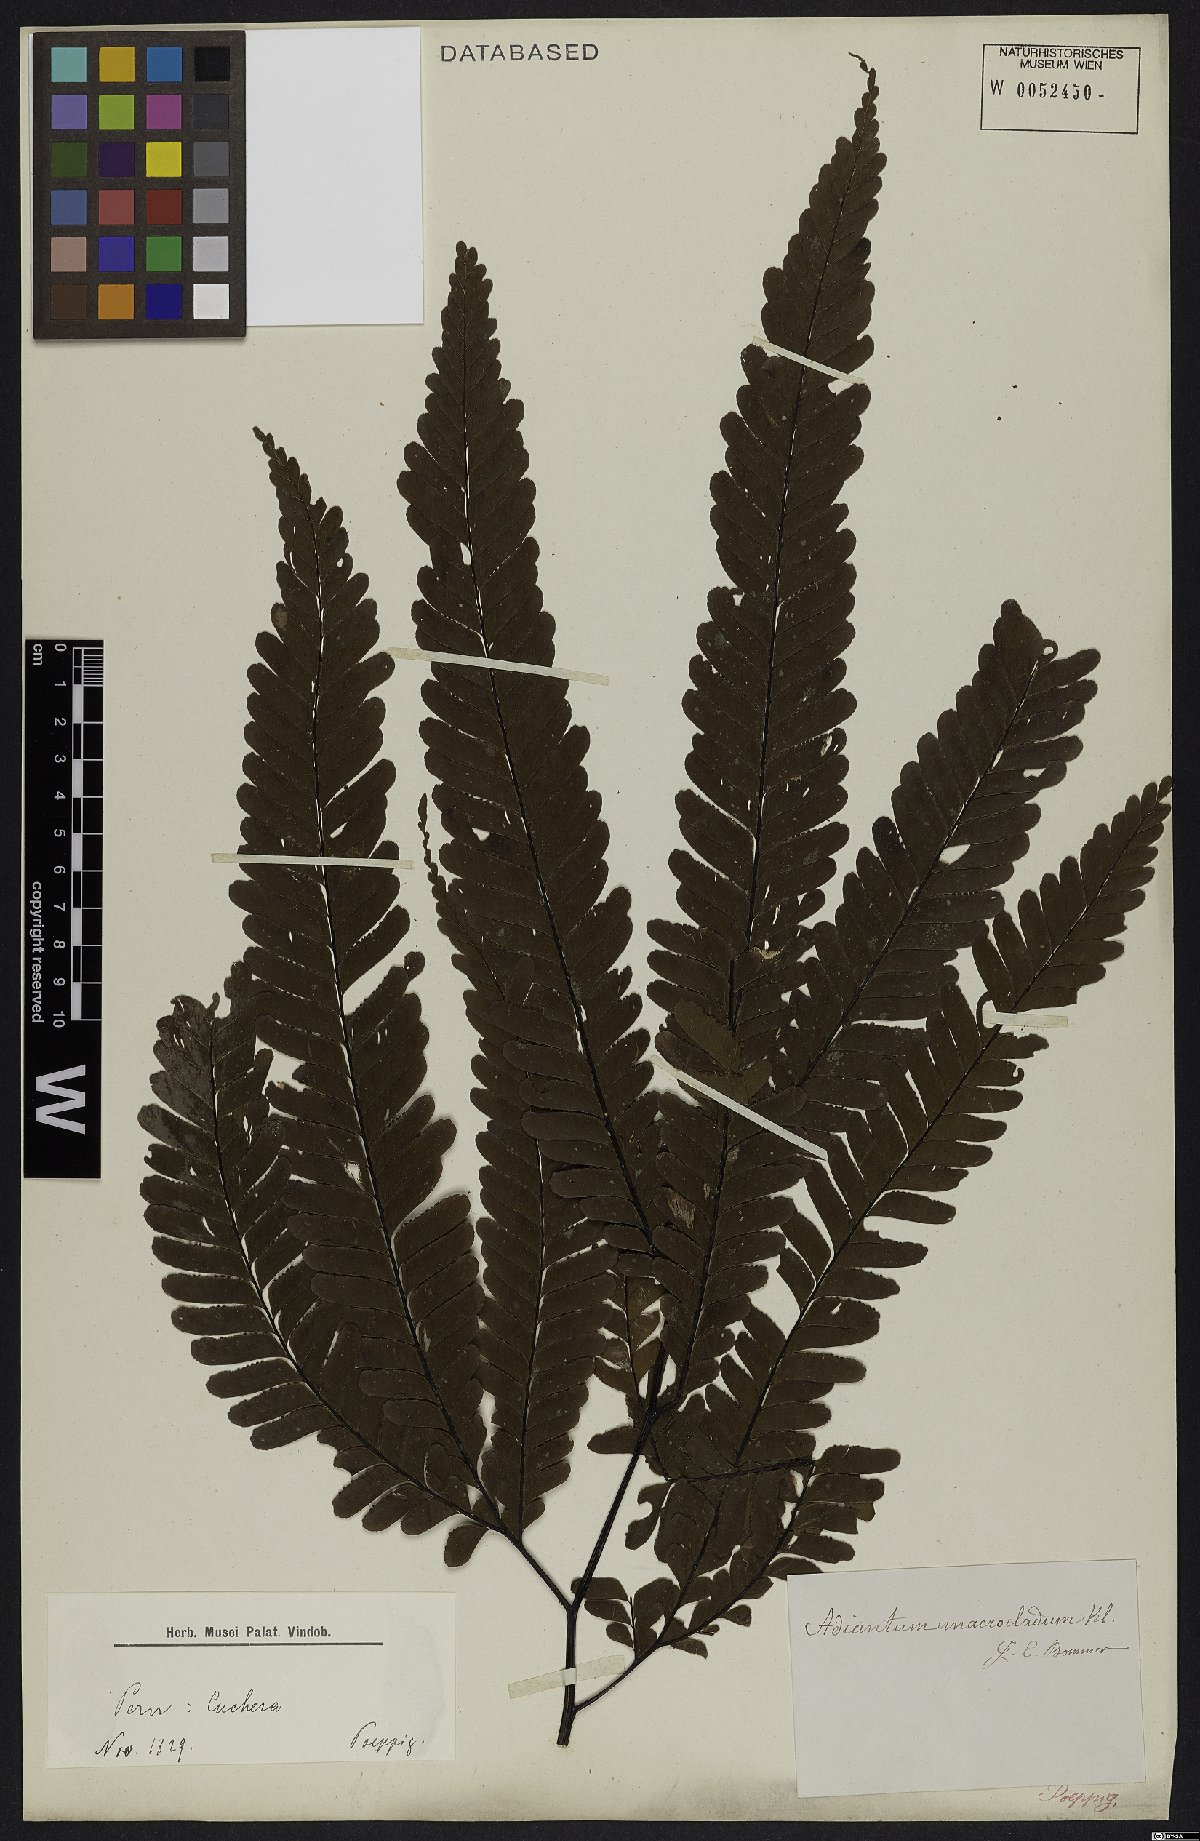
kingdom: Plantae
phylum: Tracheophyta
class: Polypodiopsida
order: Polypodiales
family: Pteridaceae
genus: Adiantum
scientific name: Adiantum macrocladum
